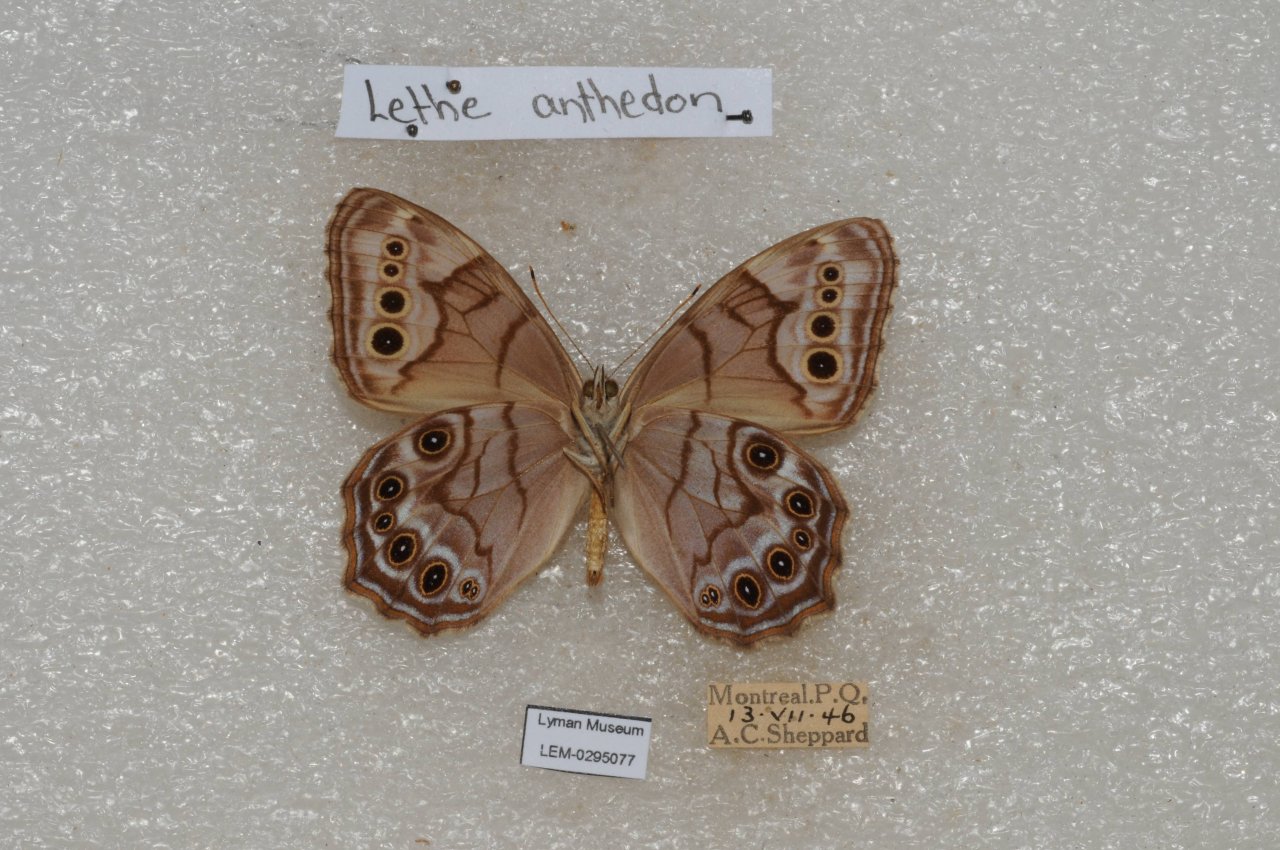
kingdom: Animalia
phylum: Arthropoda
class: Insecta
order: Lepidoptera
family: Nymphalidae
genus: Lethe
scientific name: Lethe anthedon
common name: Northern Pearly-Eye
